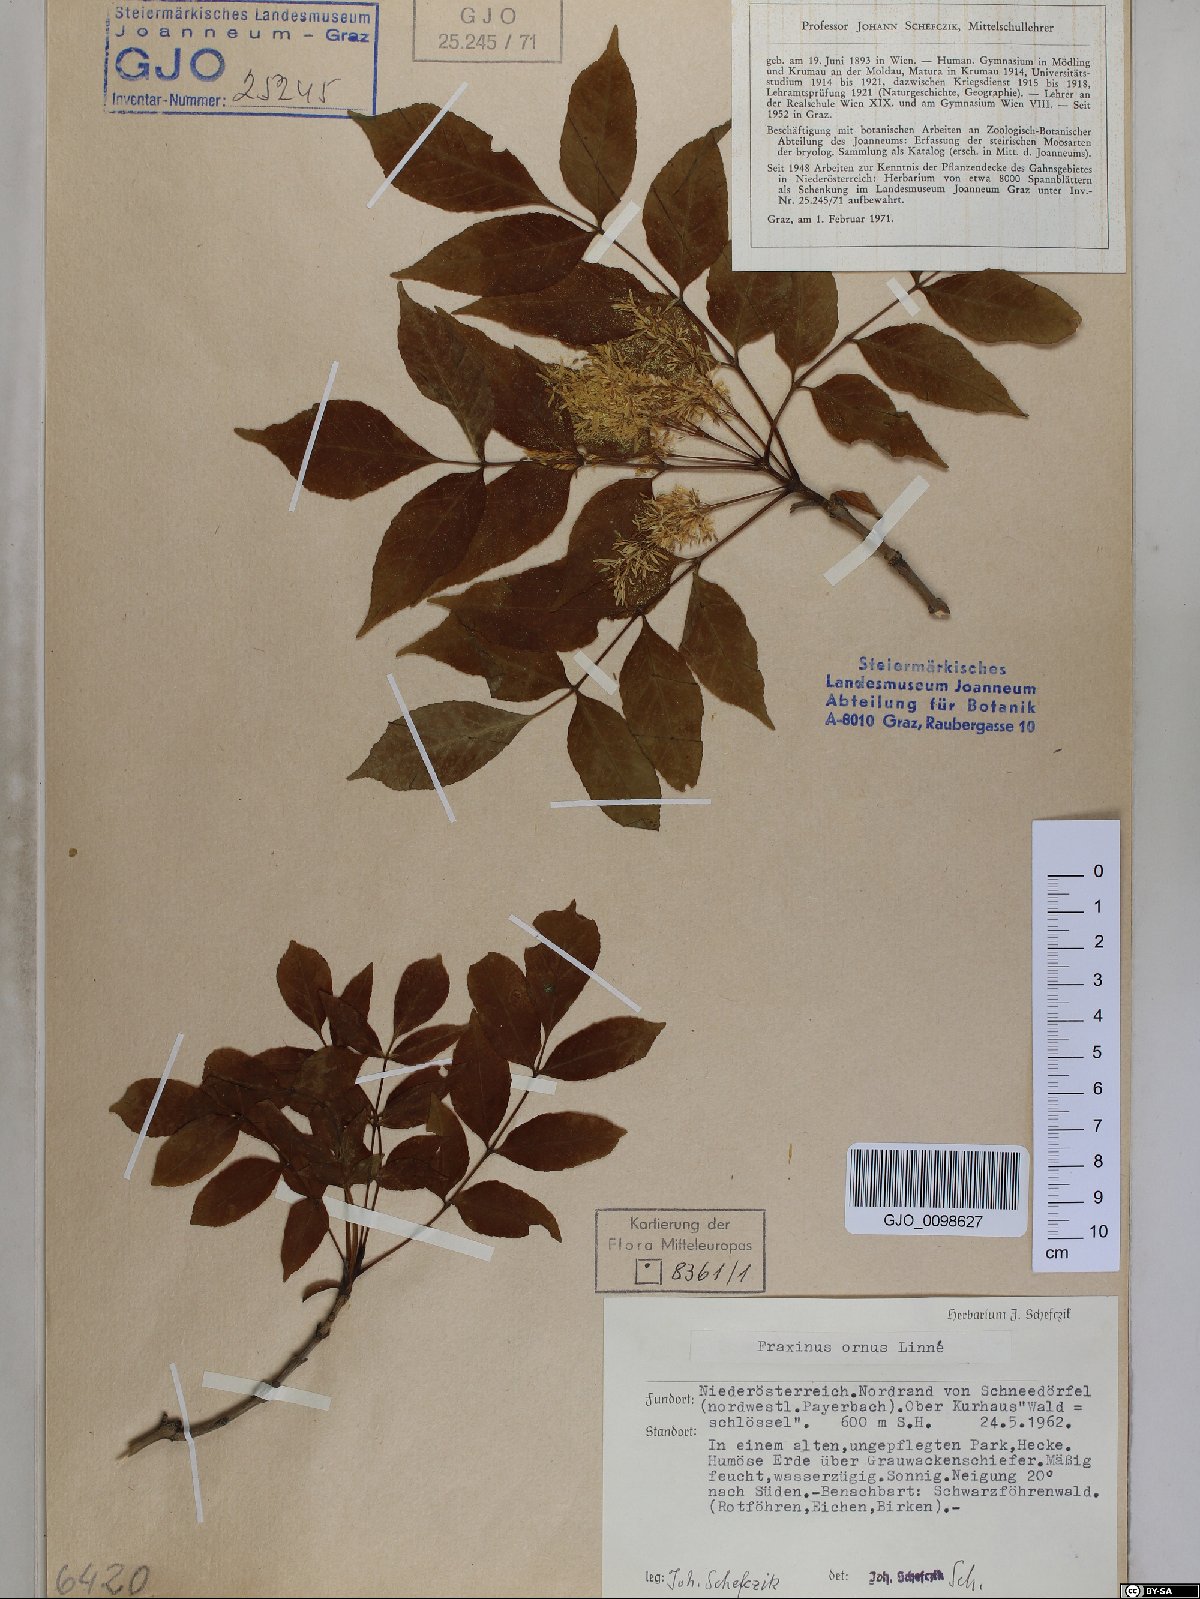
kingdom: Plantae
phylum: Tracheophyta
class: Magnoliopsida
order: Lamiales
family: Oleaceae
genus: Fraxinus
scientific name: Fraxinus ornus
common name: Manna ash
